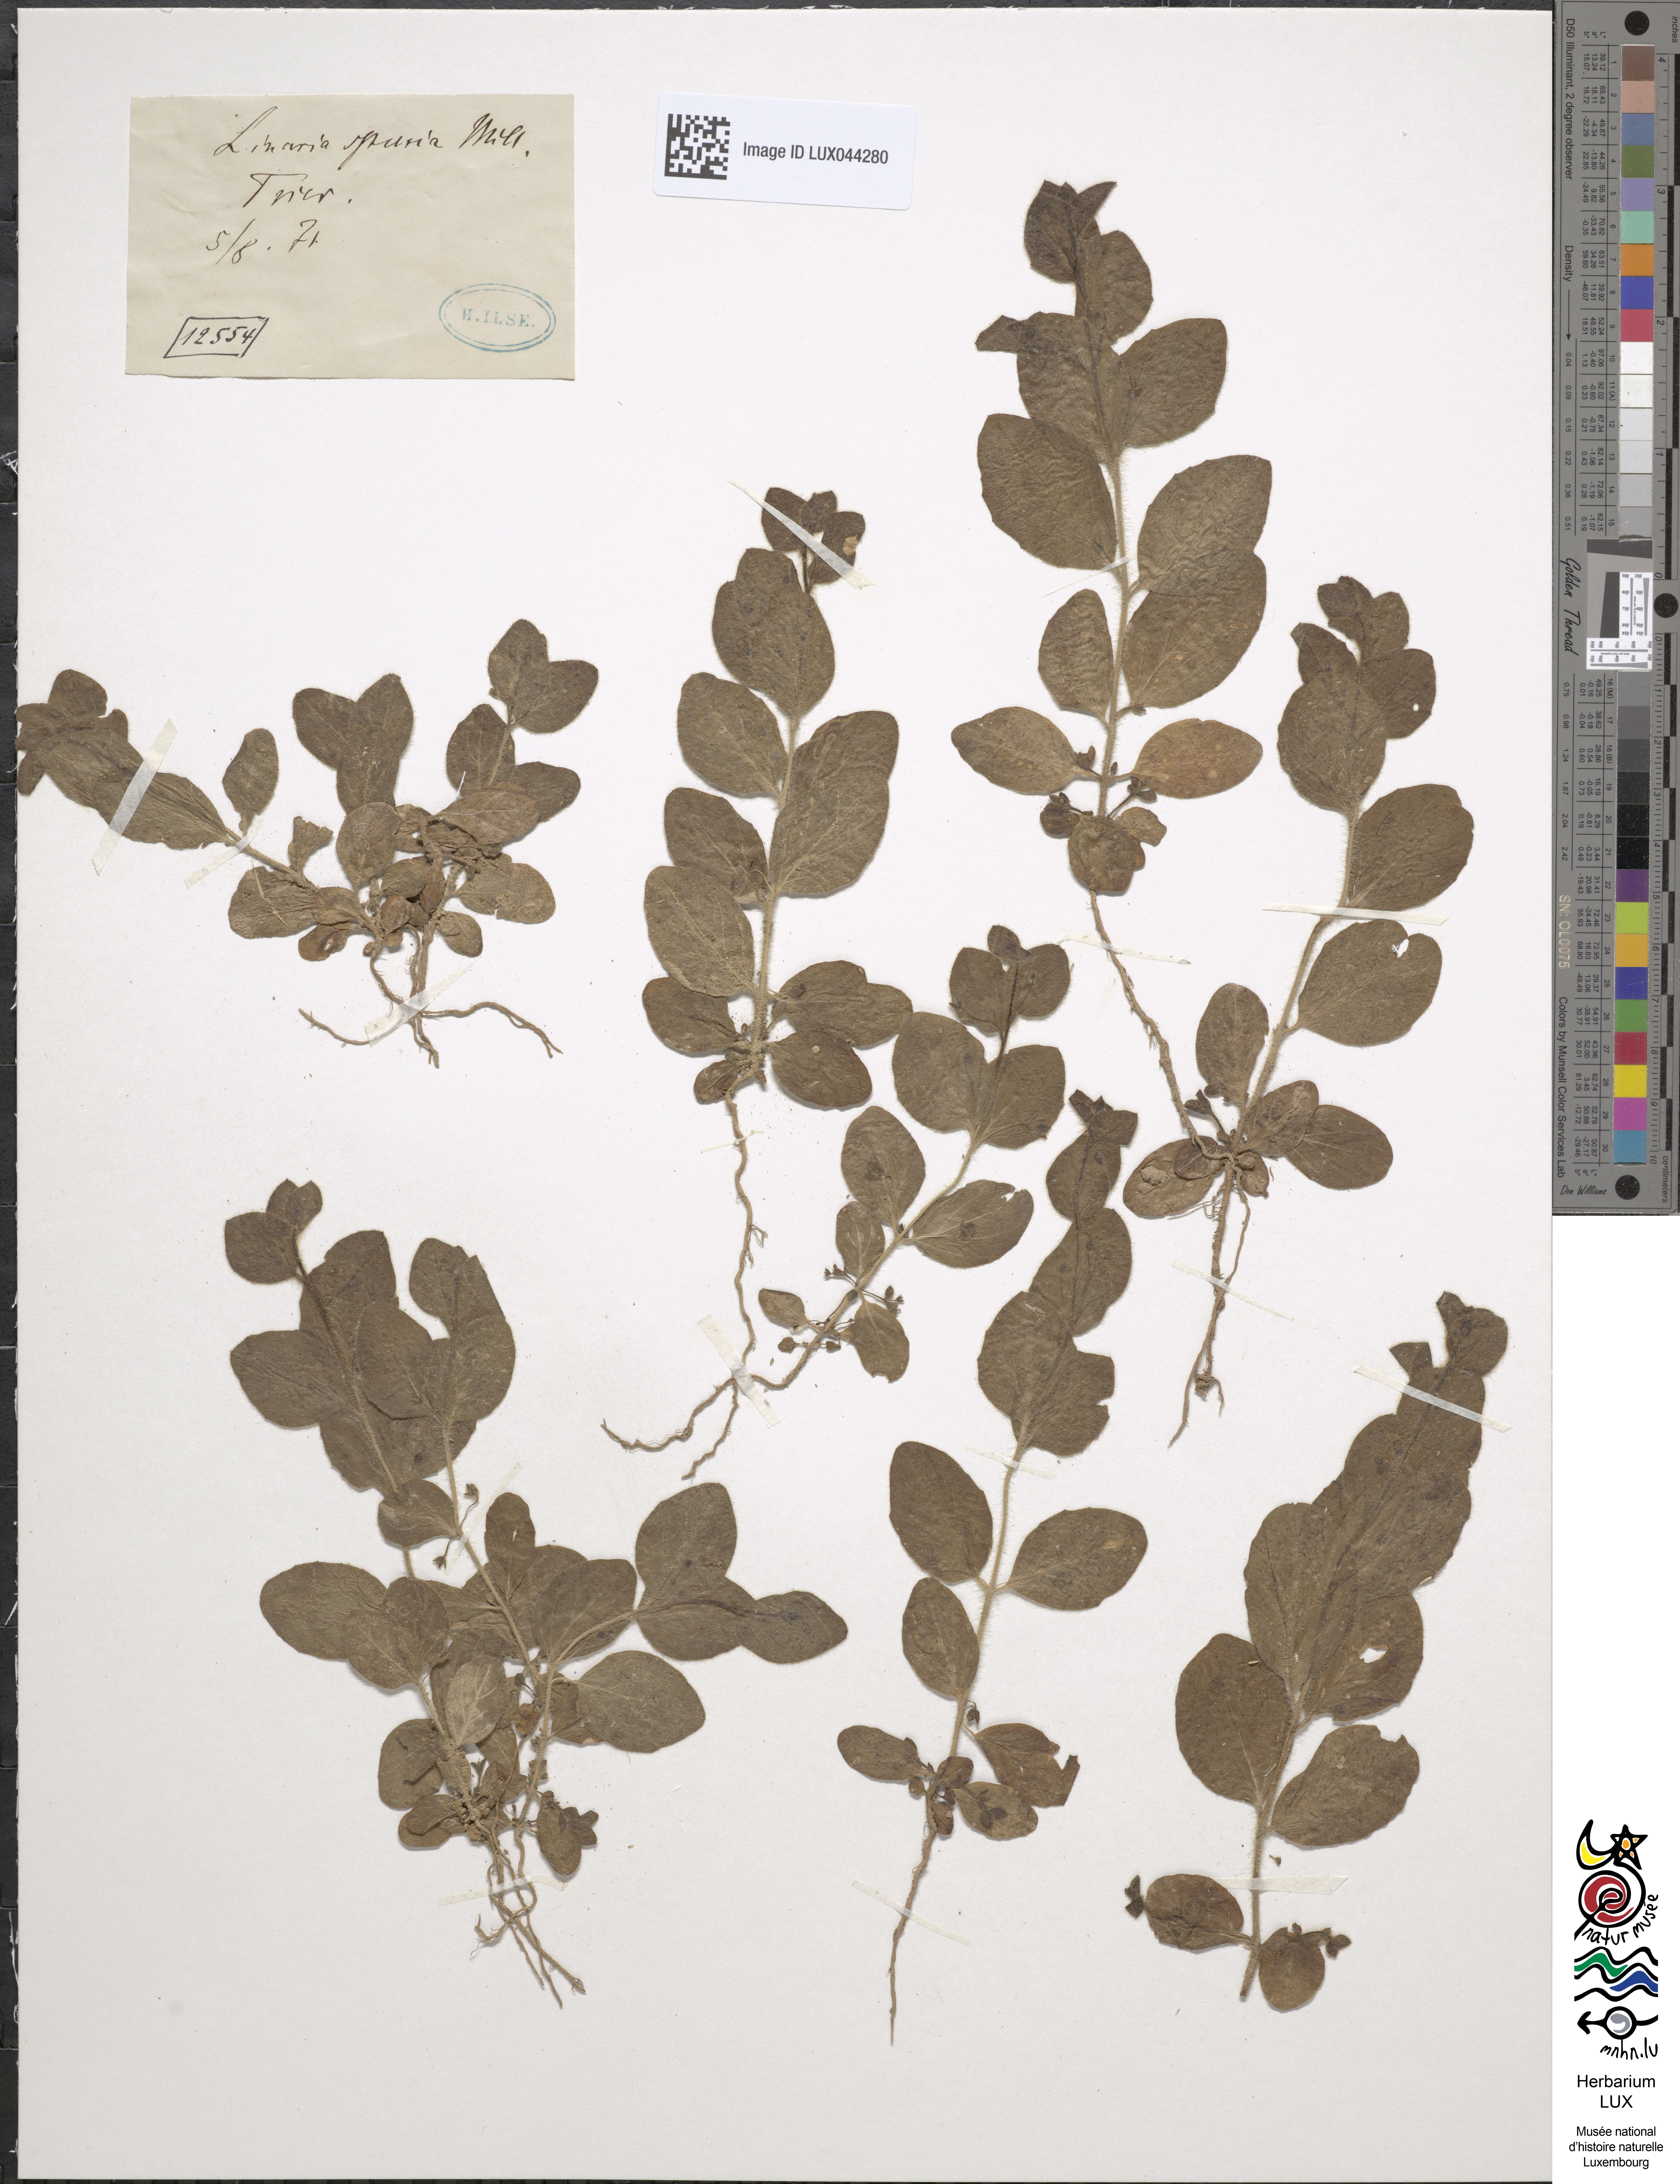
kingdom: Plantae
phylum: Tracheophyta
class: Magnoliopsida
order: Lamiales
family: Plantaginaceae
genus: Kickxia
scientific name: Kickxia spuria
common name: Round-leaved fluellen
